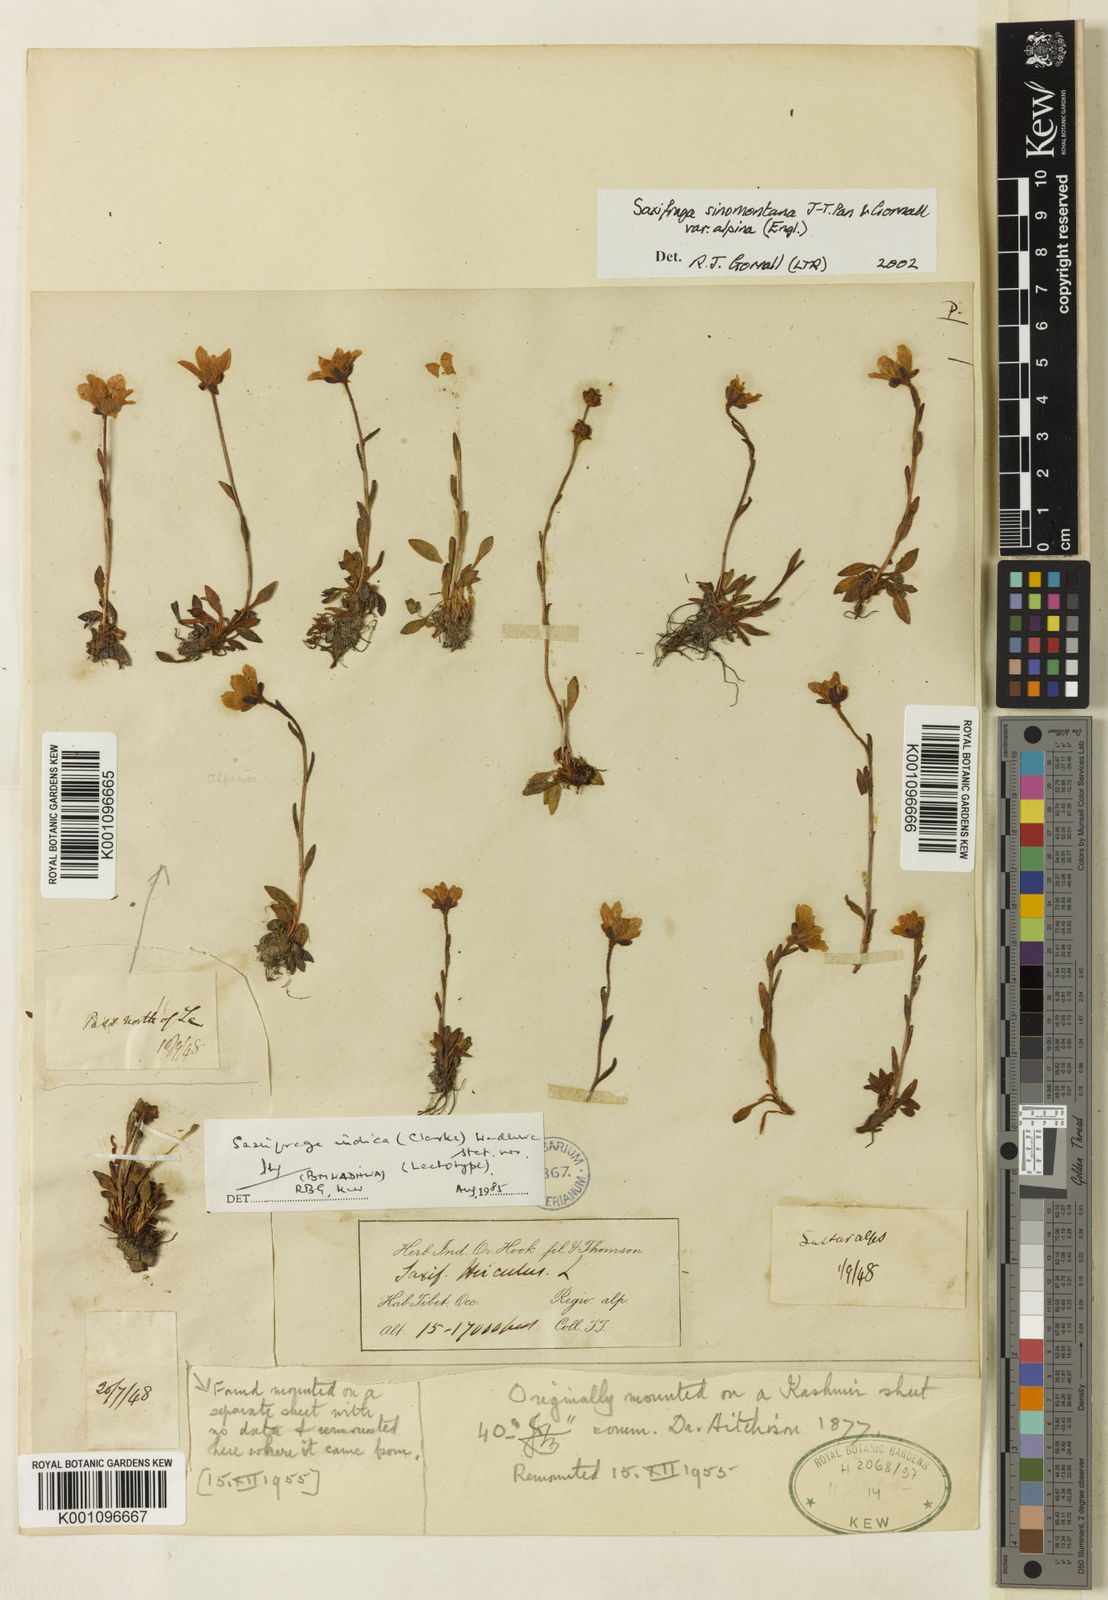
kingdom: Plantae
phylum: Tracheophyta
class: Magnoliopsida
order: Saxifragales
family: Saxifragaceae
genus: Saxifraga
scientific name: Saxifraga
